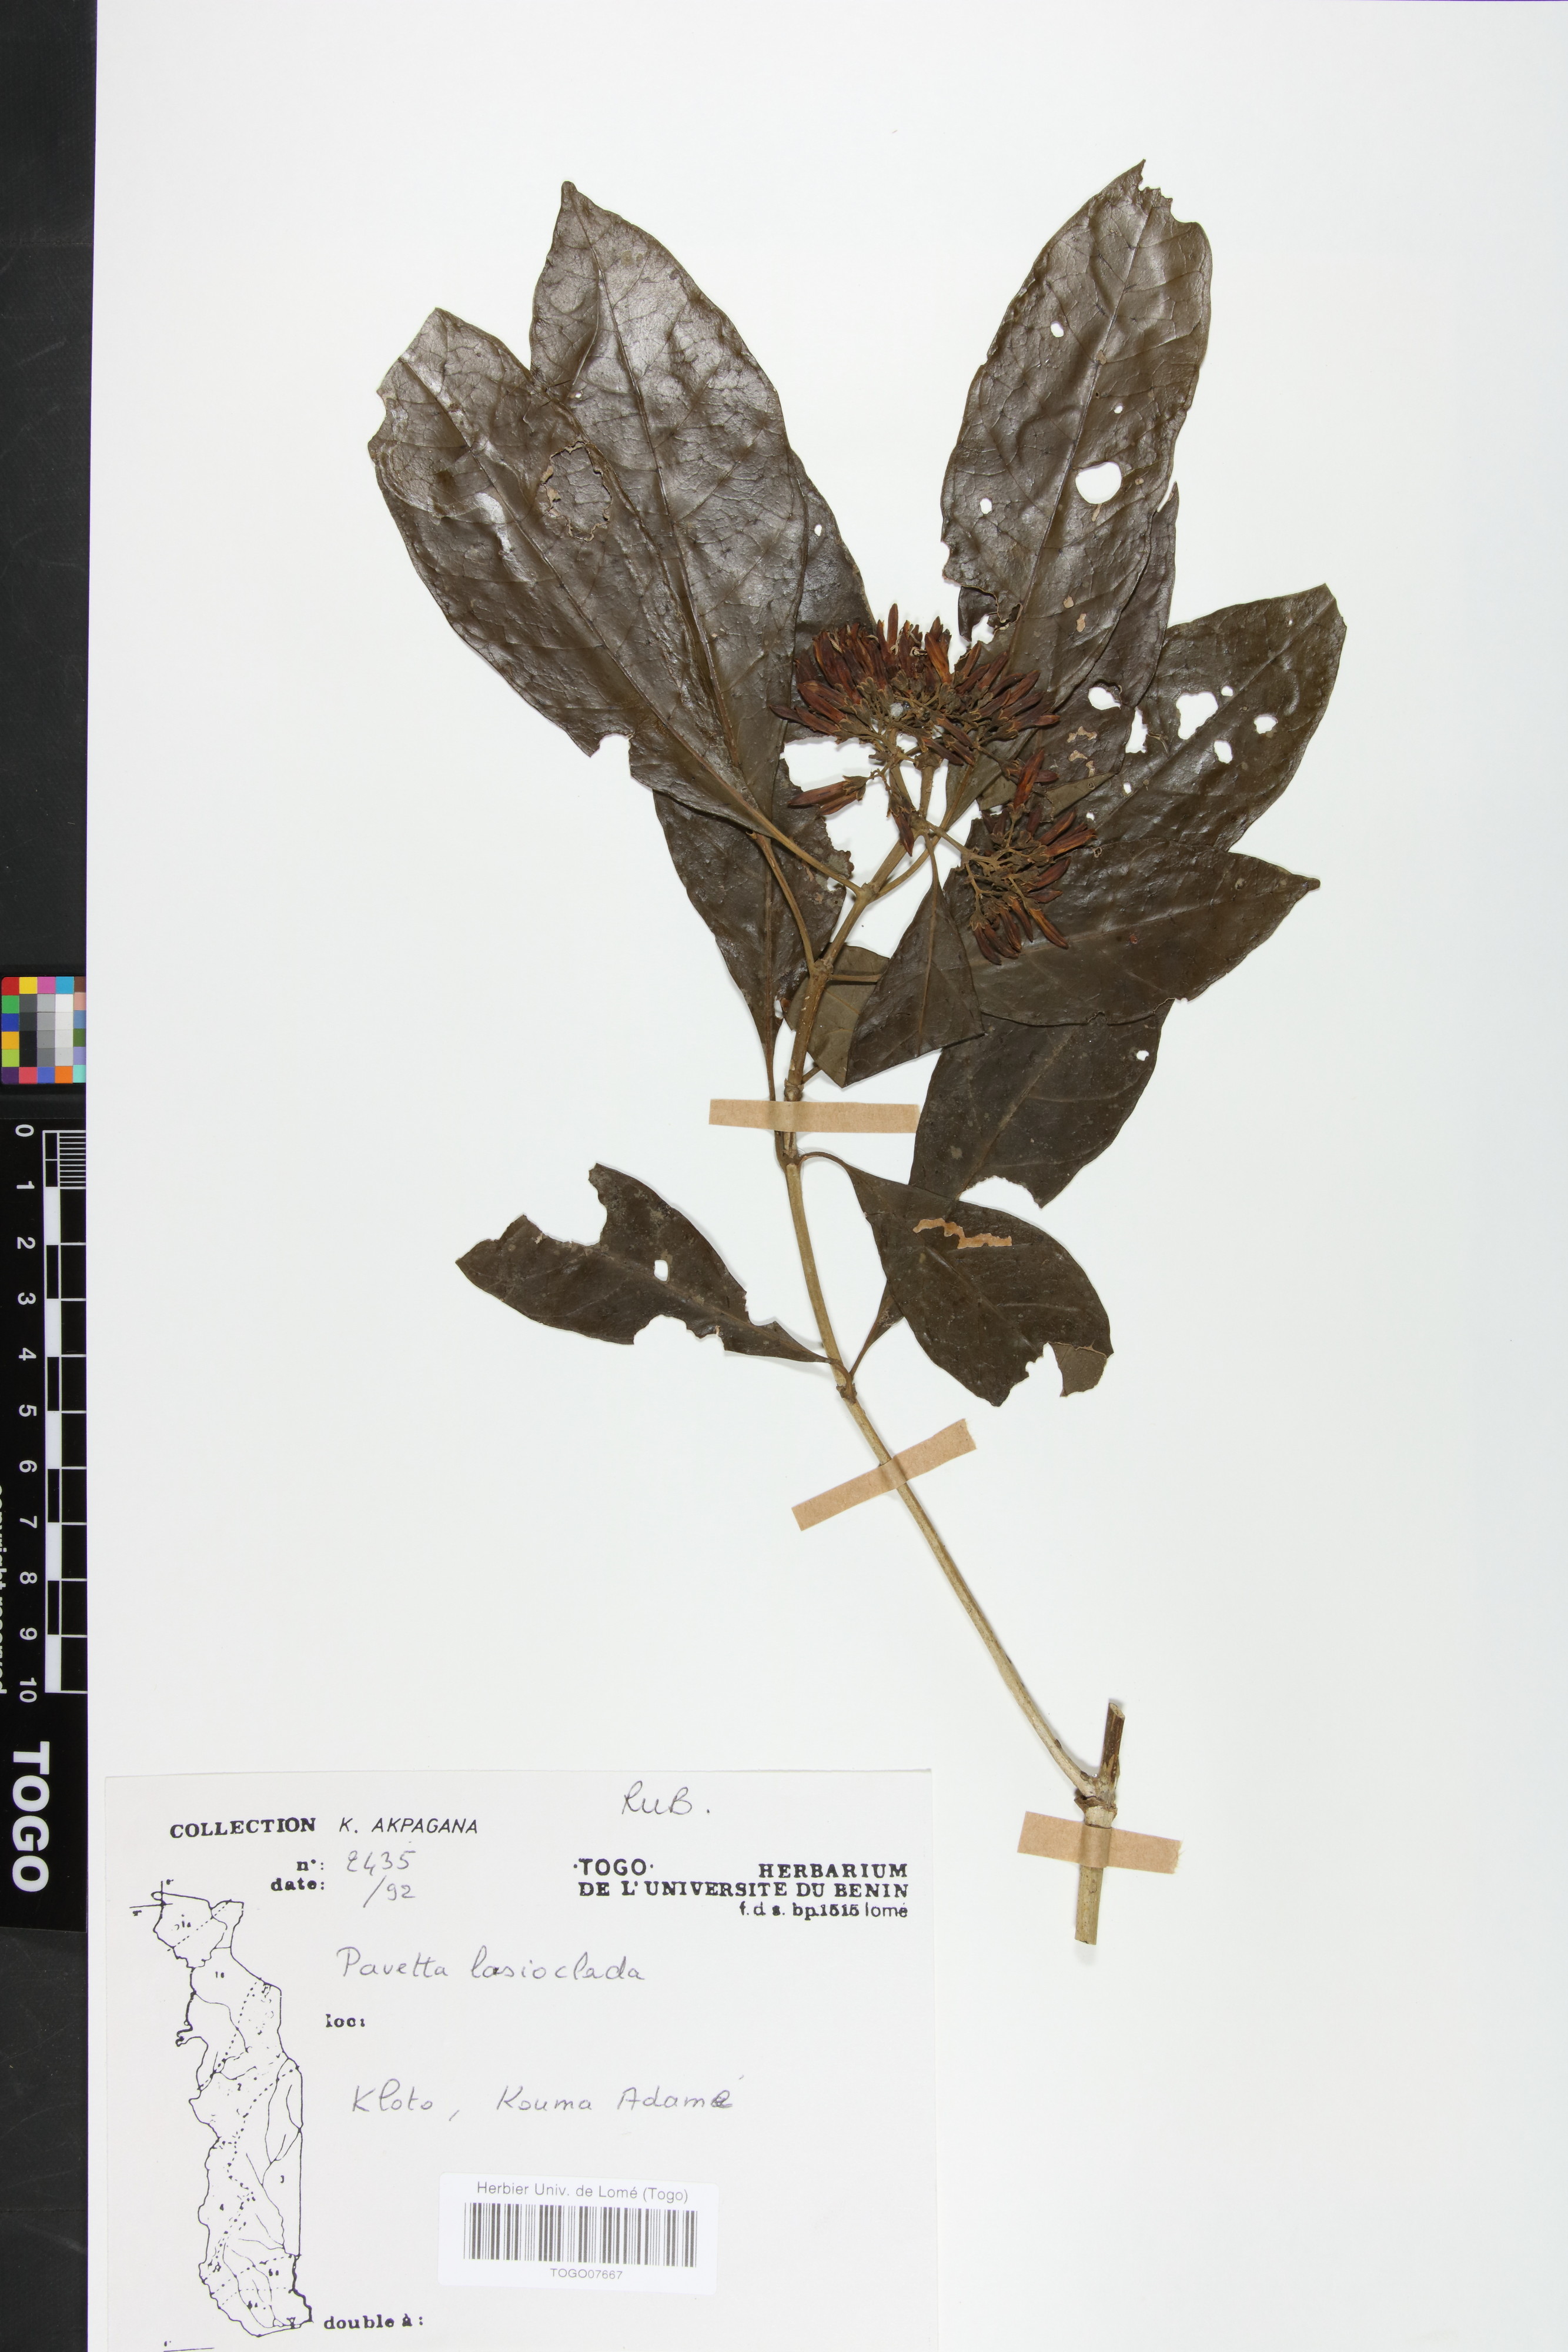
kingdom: Plantae
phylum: Tracheophyta
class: Magnoliopsida
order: Gentianales
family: Rubiaceae
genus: Pavetta
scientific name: Pavetta lasioclada
